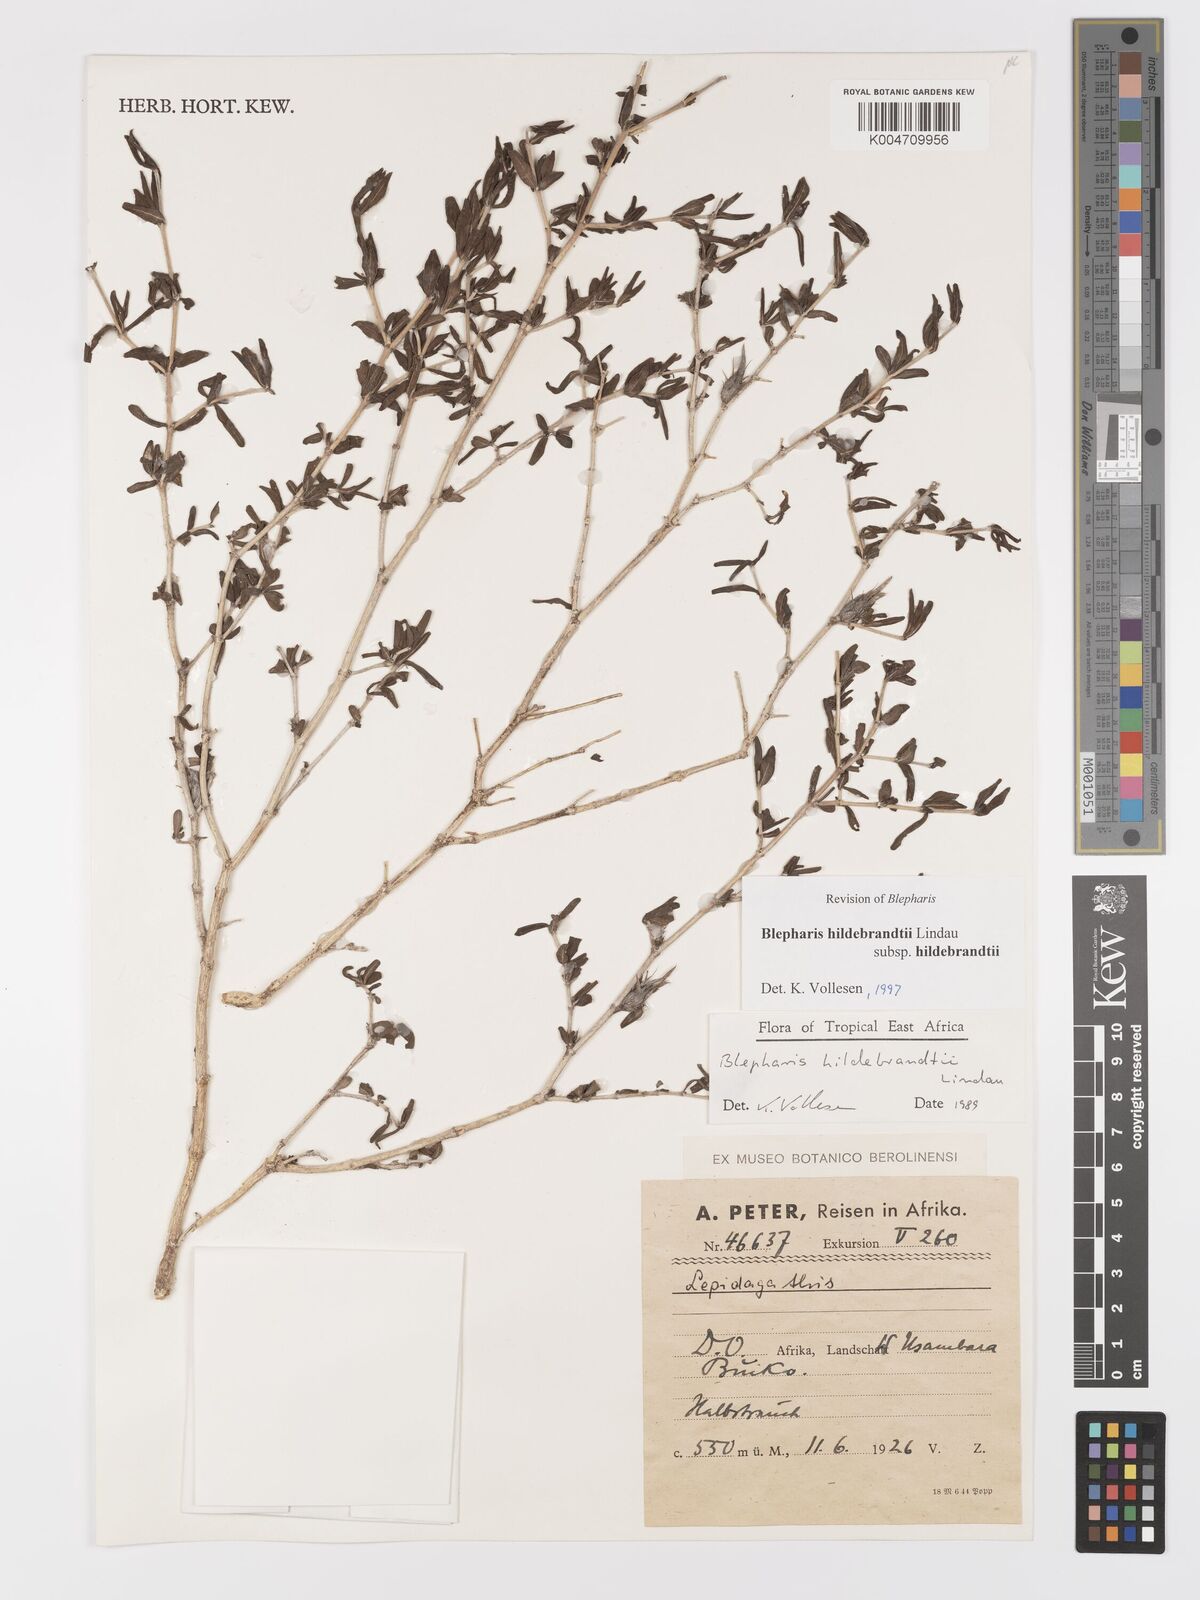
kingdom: Plantae
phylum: Tracheophyta
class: Magnoliopsida
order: Lamiales
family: Acanthaceae
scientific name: Acanthaceae
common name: Acanthaceae
